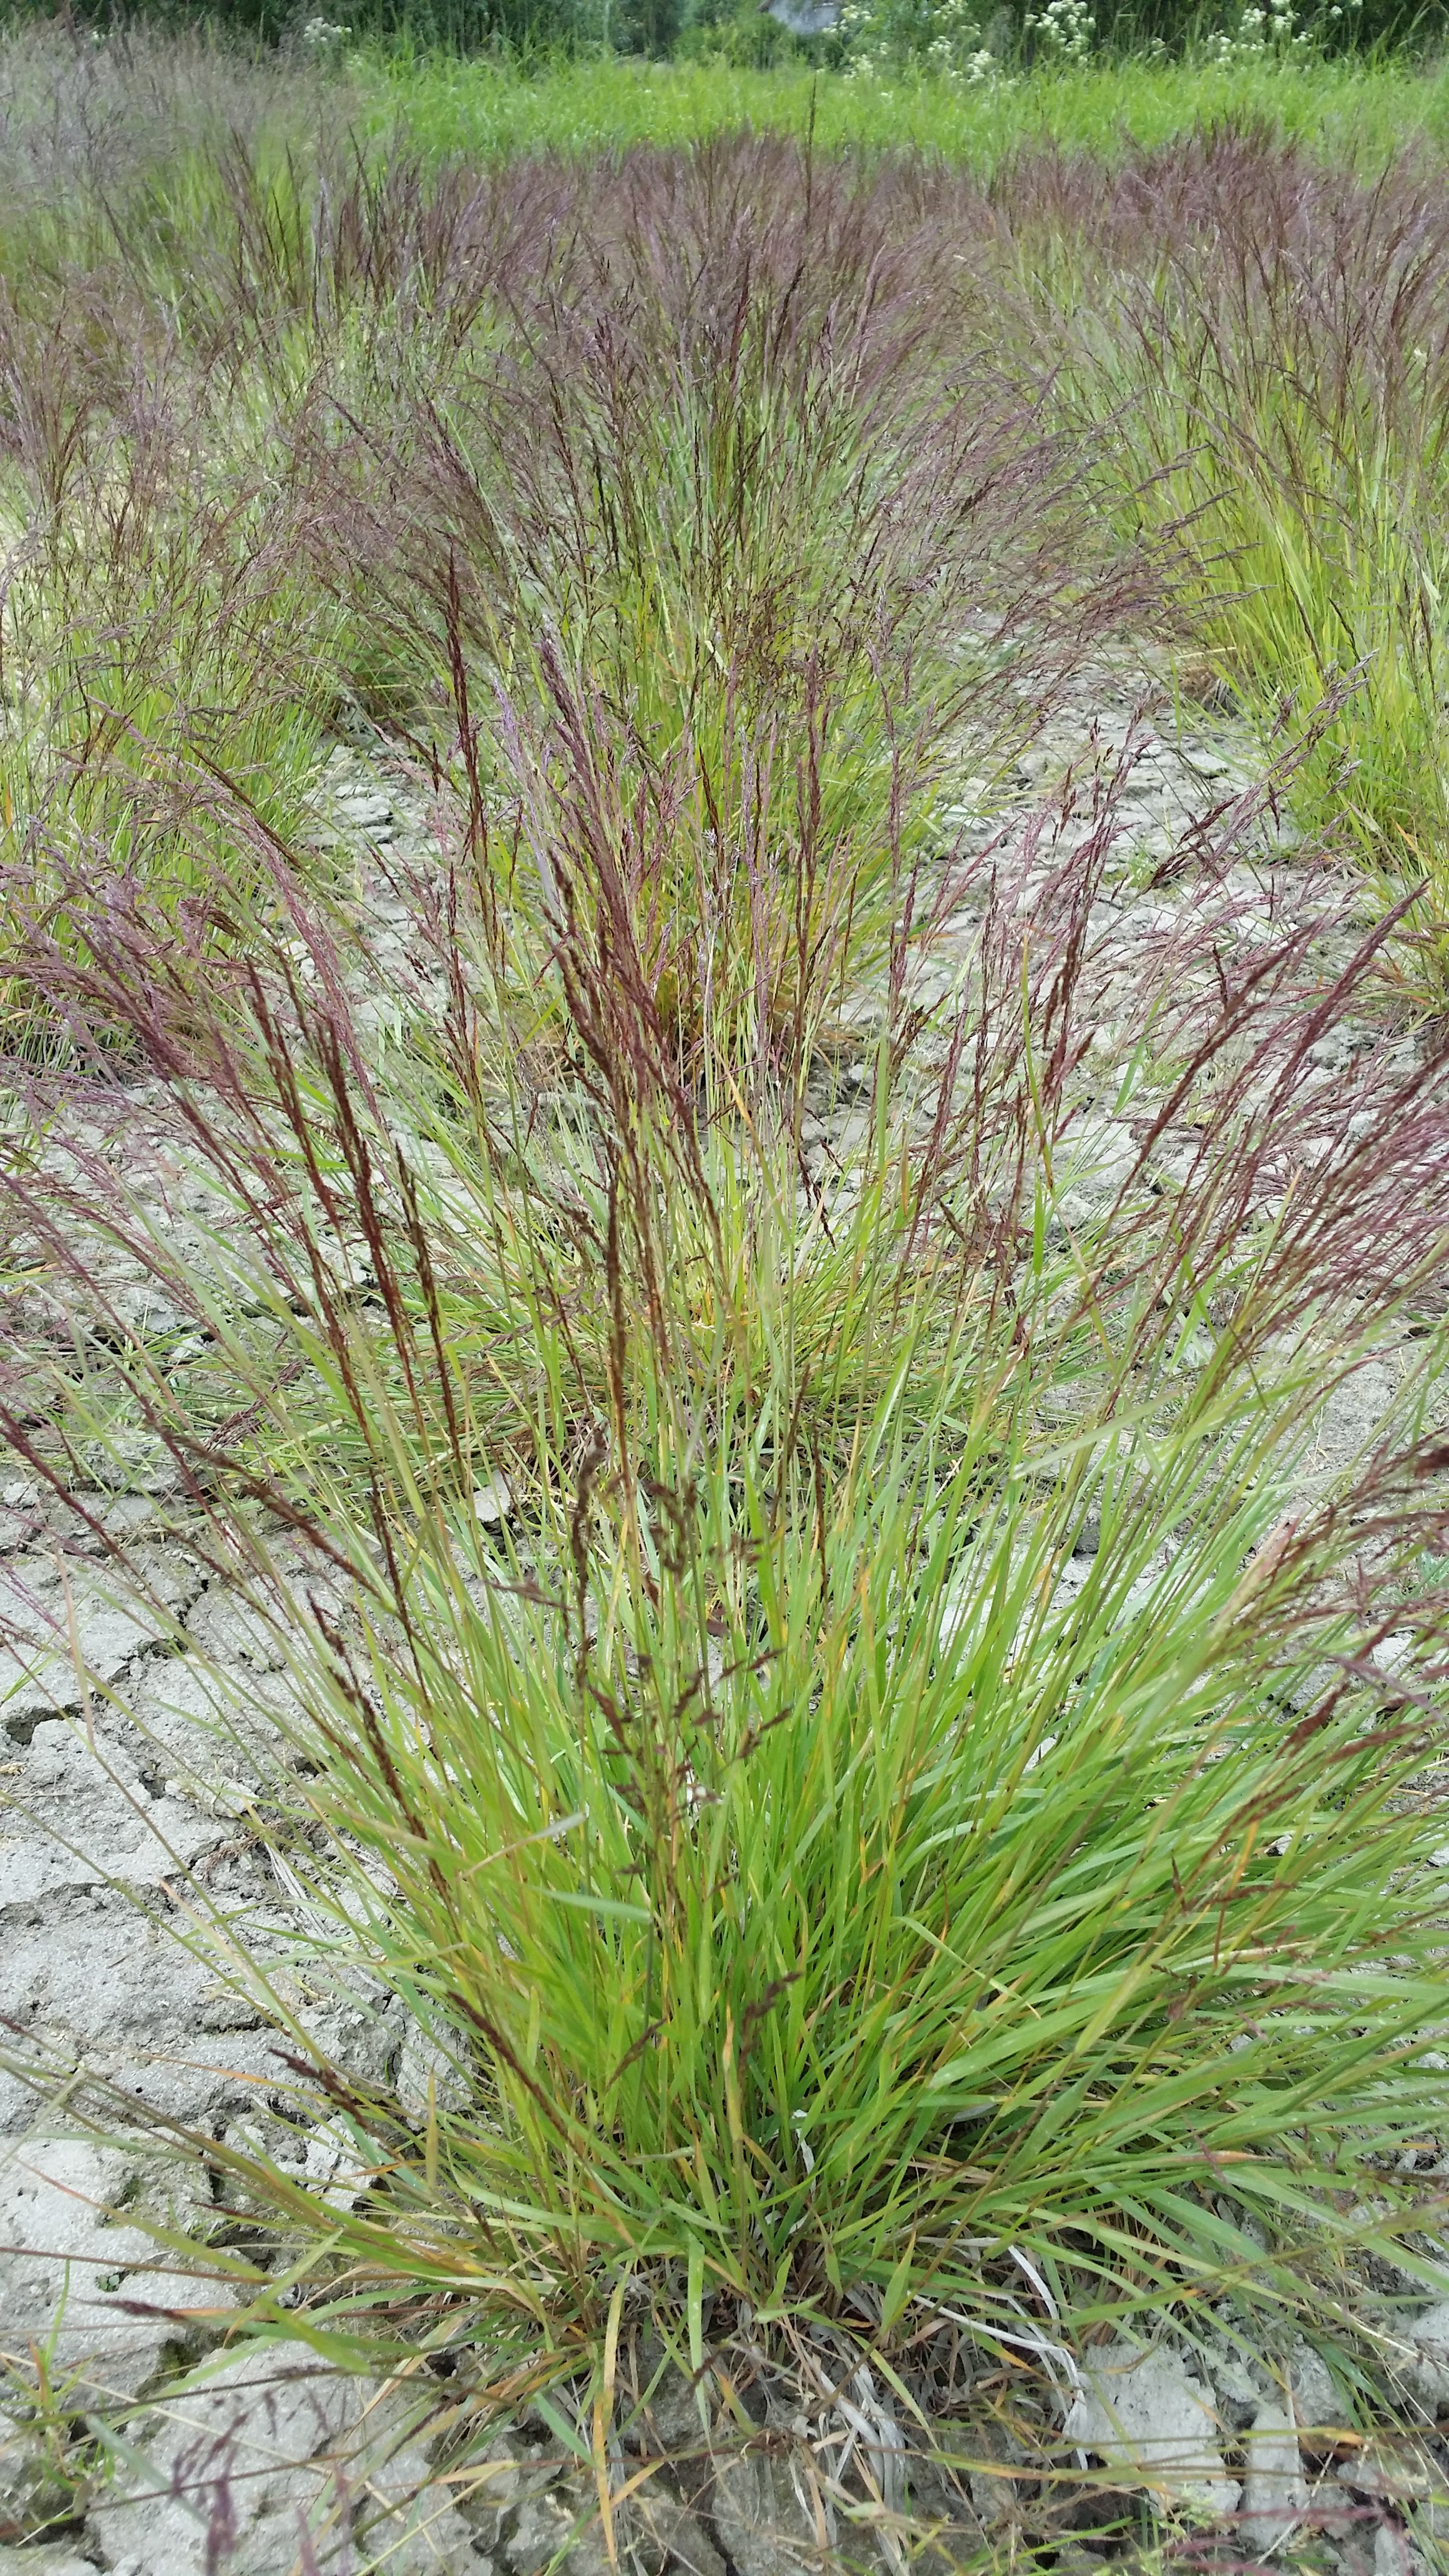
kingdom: Plantae
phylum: Tracheophyta
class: Liliopsida
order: Poales
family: Poaceae
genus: Agrostis
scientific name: Agrostis capillaris
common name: Colonial bentgrass
